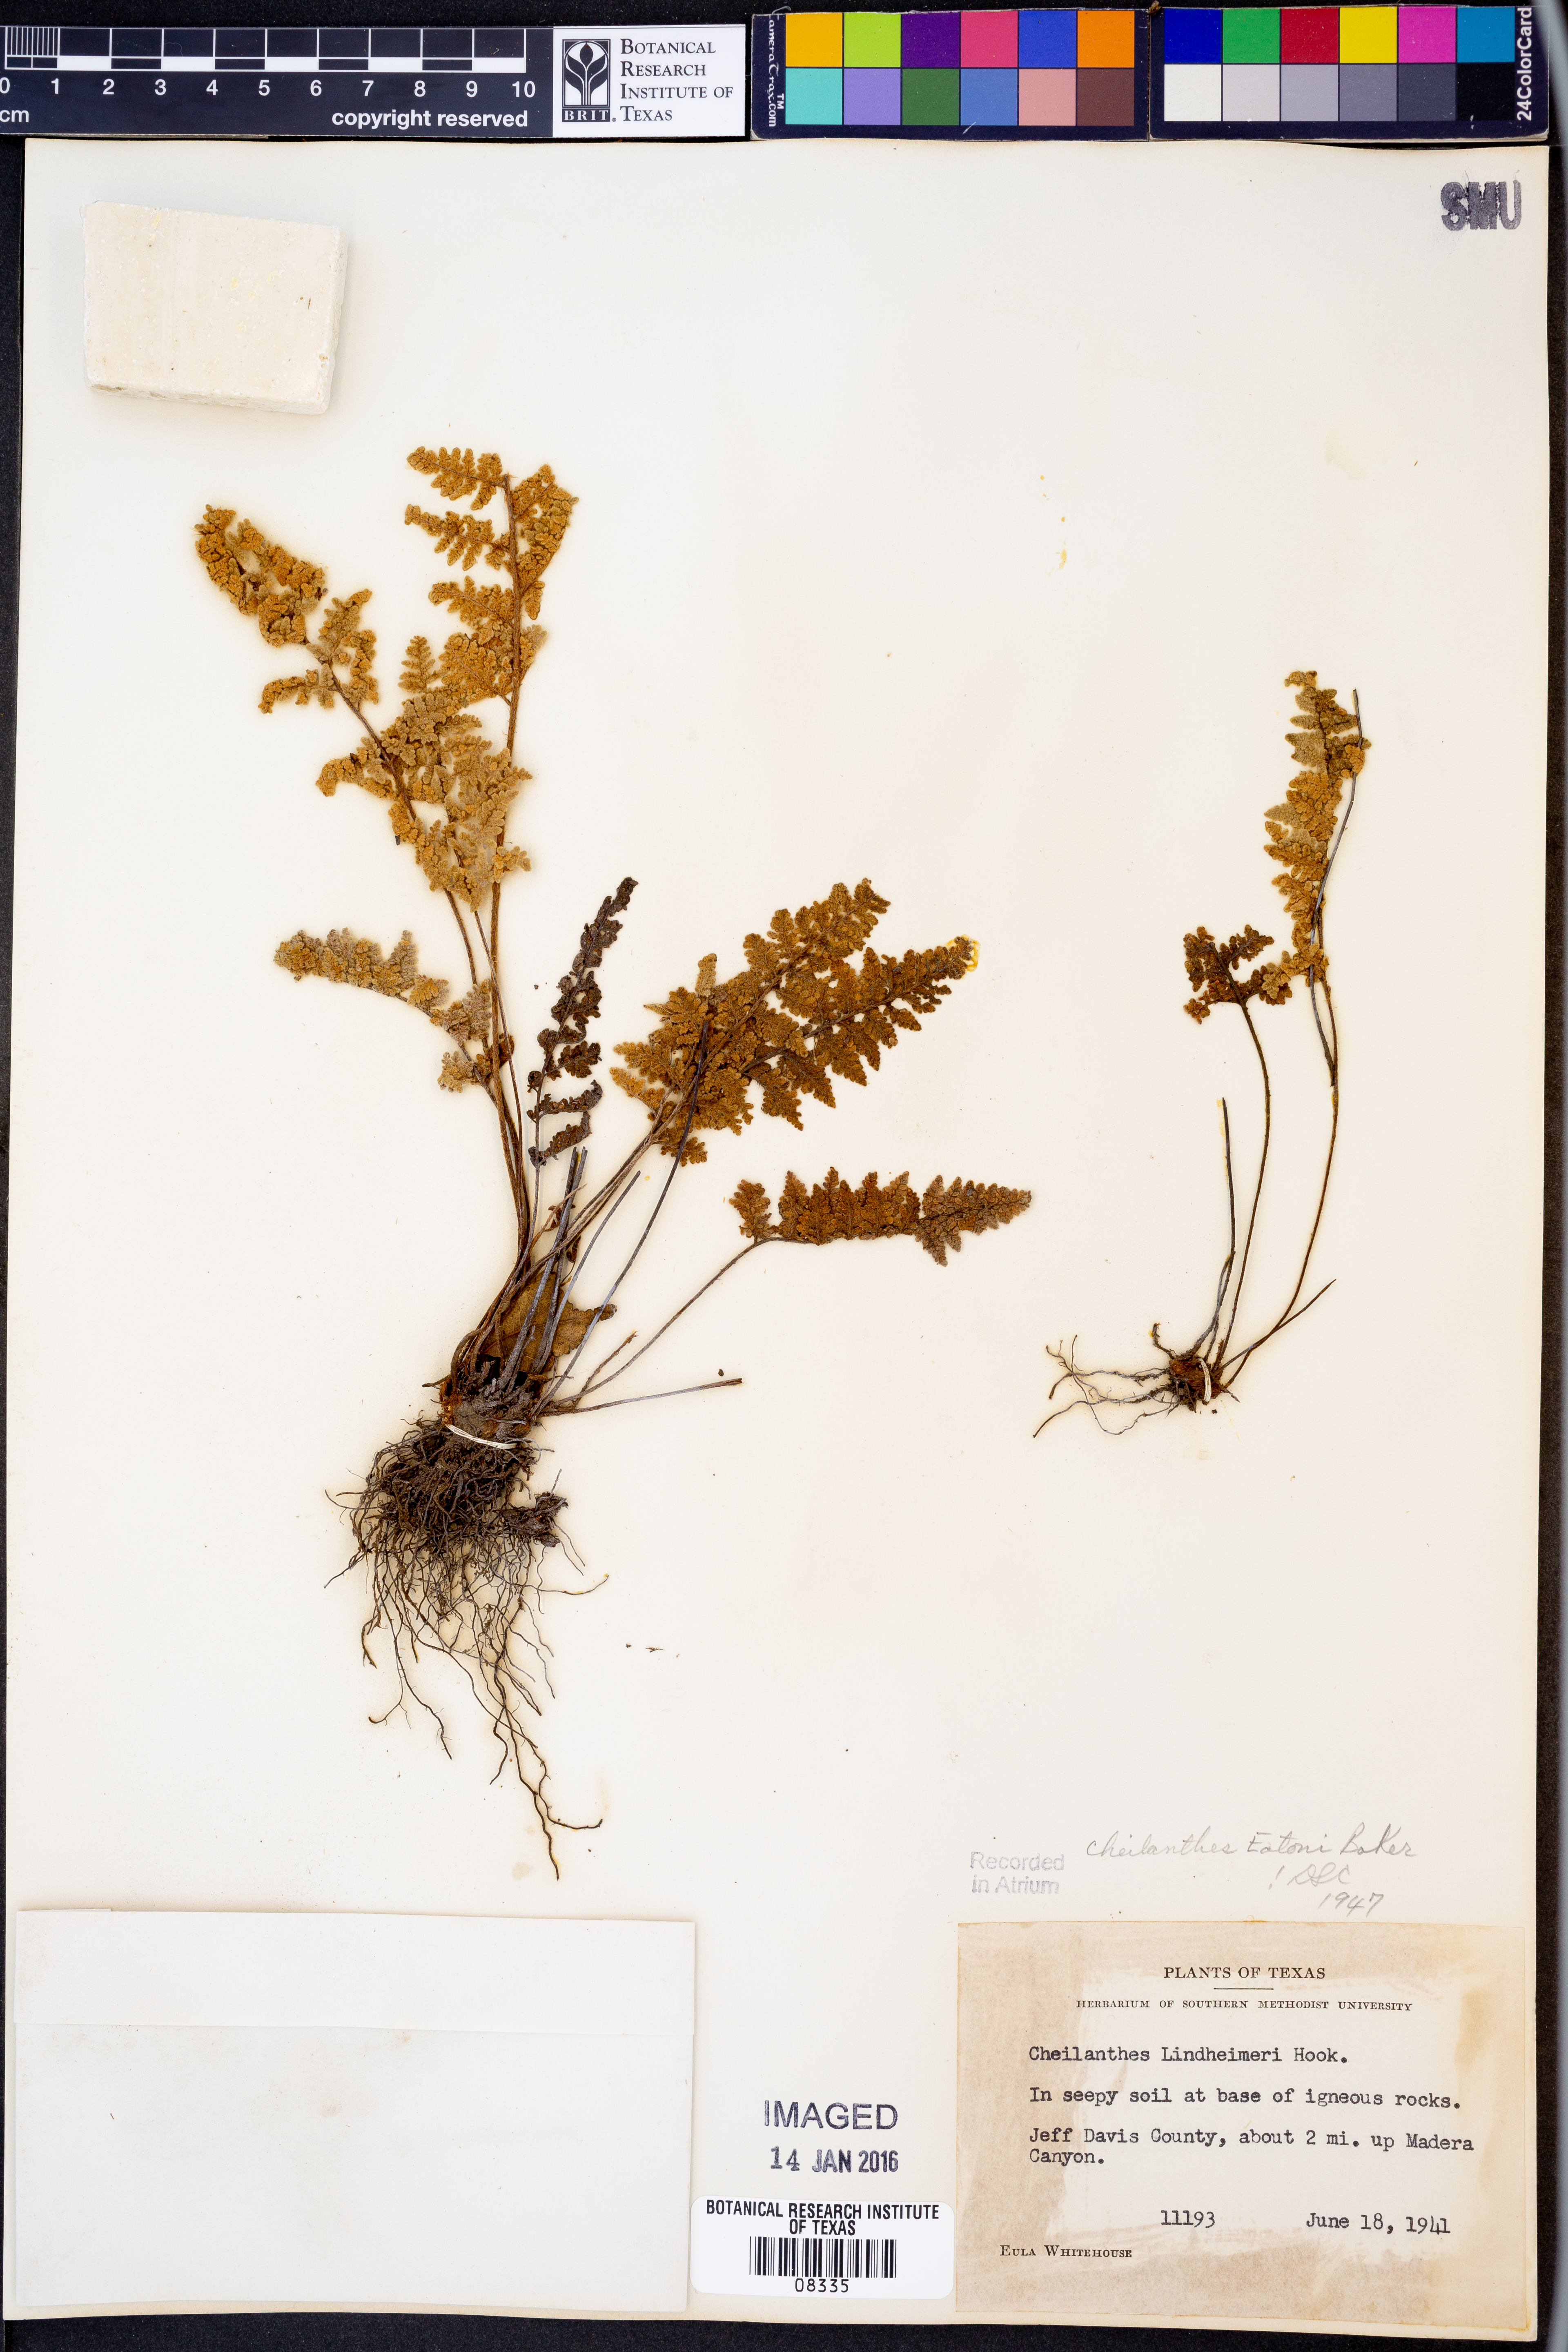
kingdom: Plantae
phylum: Tracheophyta
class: Polypodiopsida
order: Polypodiales
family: Pteridaceae
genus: Myriopteris
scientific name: Myriopteris rufa
